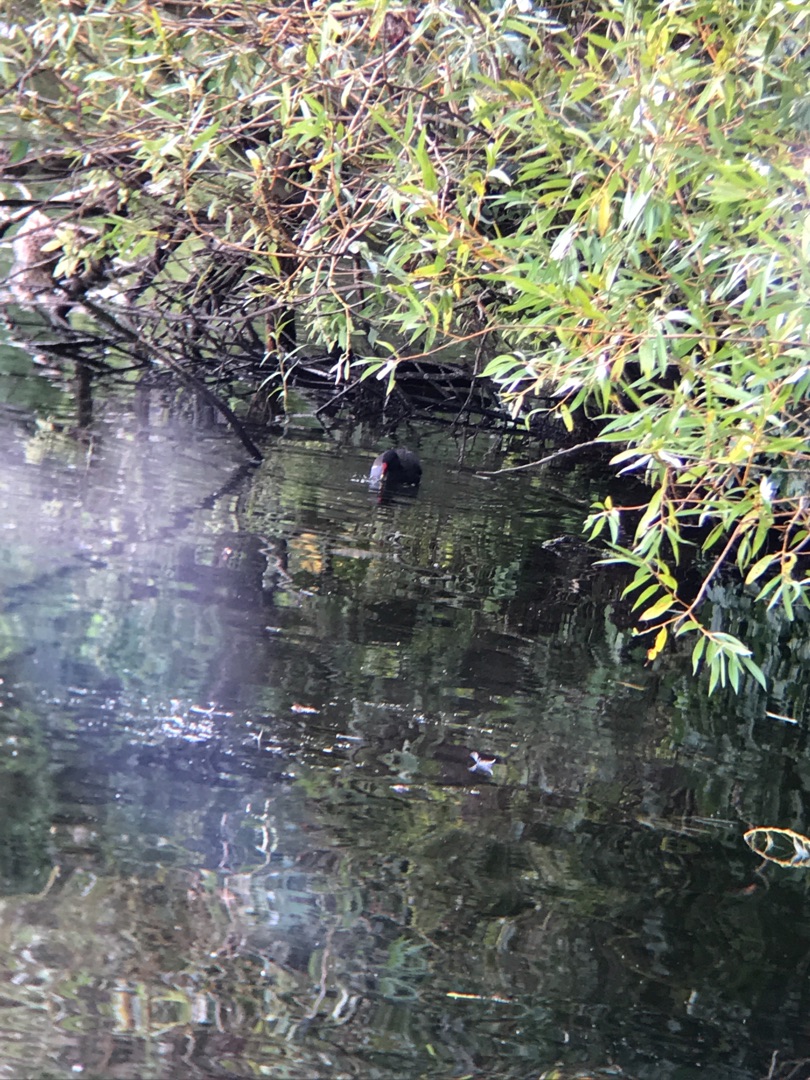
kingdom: Animalia
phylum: Chordata
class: Aves
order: Gruiformes
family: Rallidae
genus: Gallinula
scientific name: Gallinula chloropus
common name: Grønbenet rørhøne
